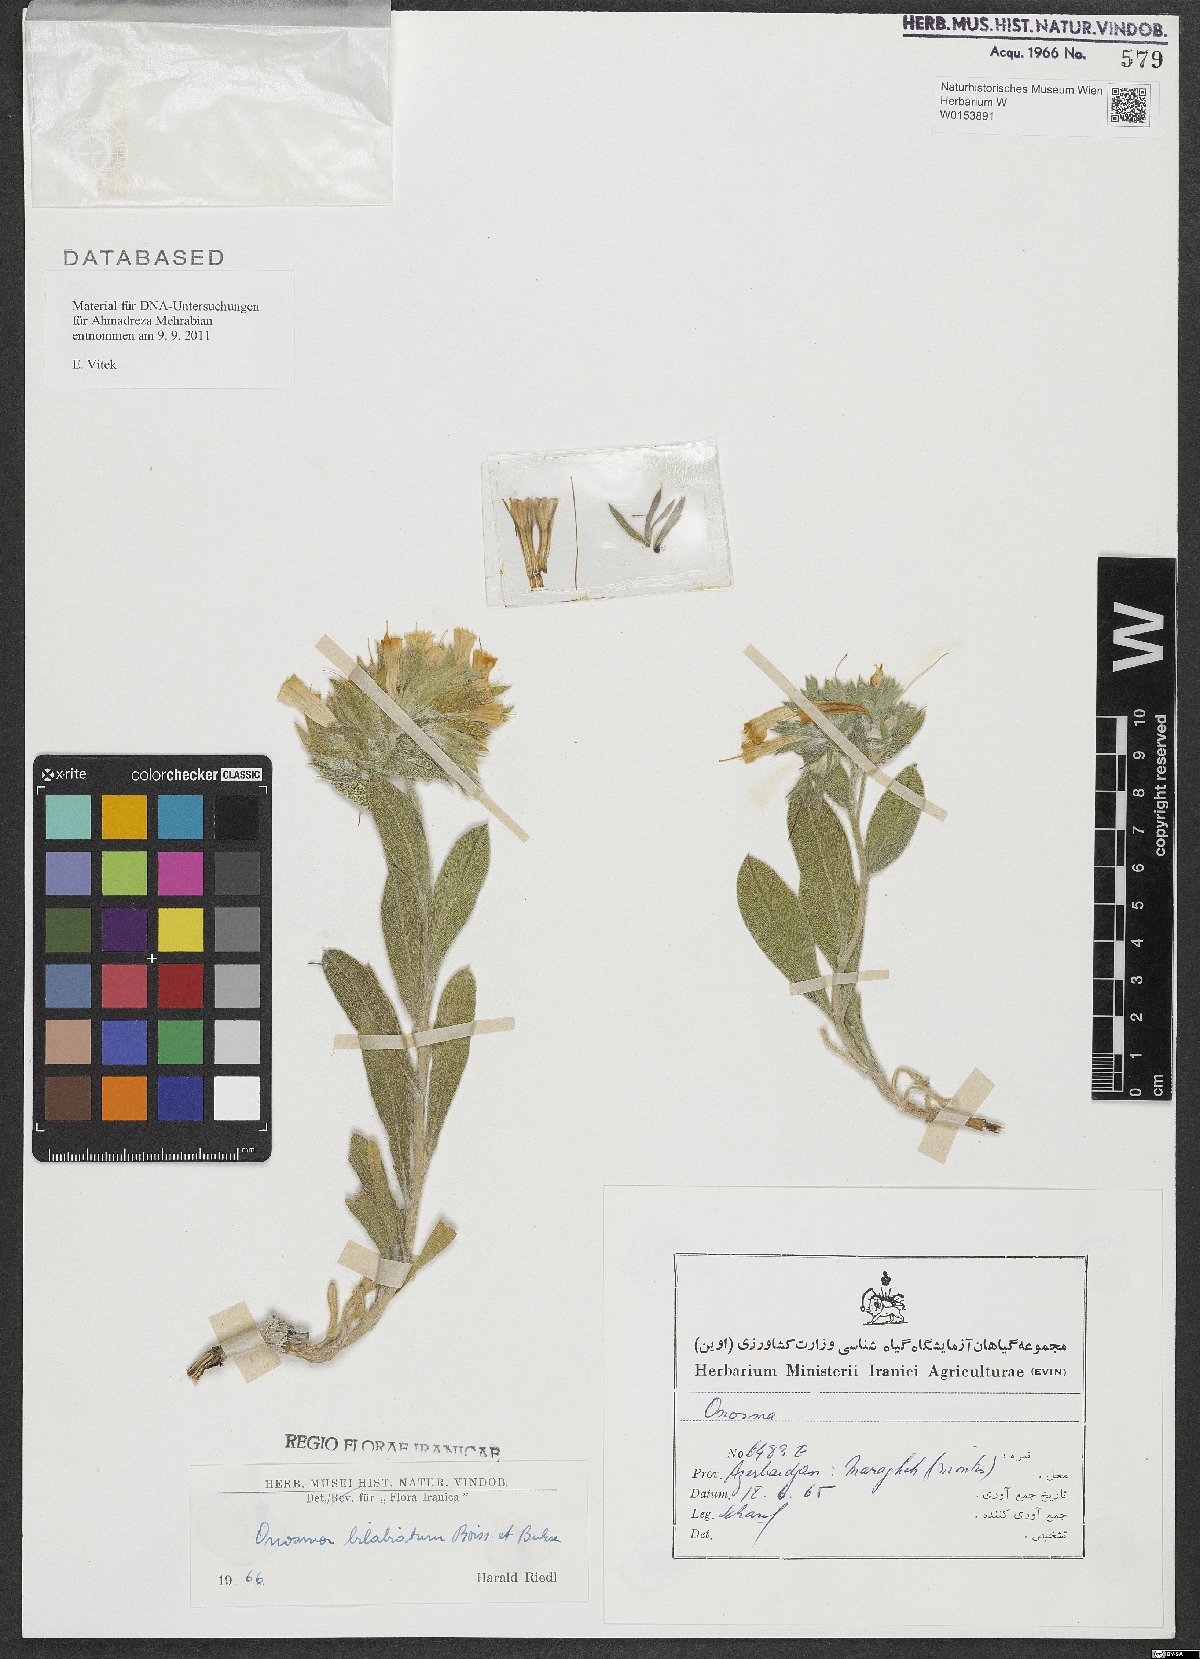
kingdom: Plantae
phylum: Tracheophyta
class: Magnoliopsida
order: Boraginales
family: Boraginaceae
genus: Onosma
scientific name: Onosma bilabiata
